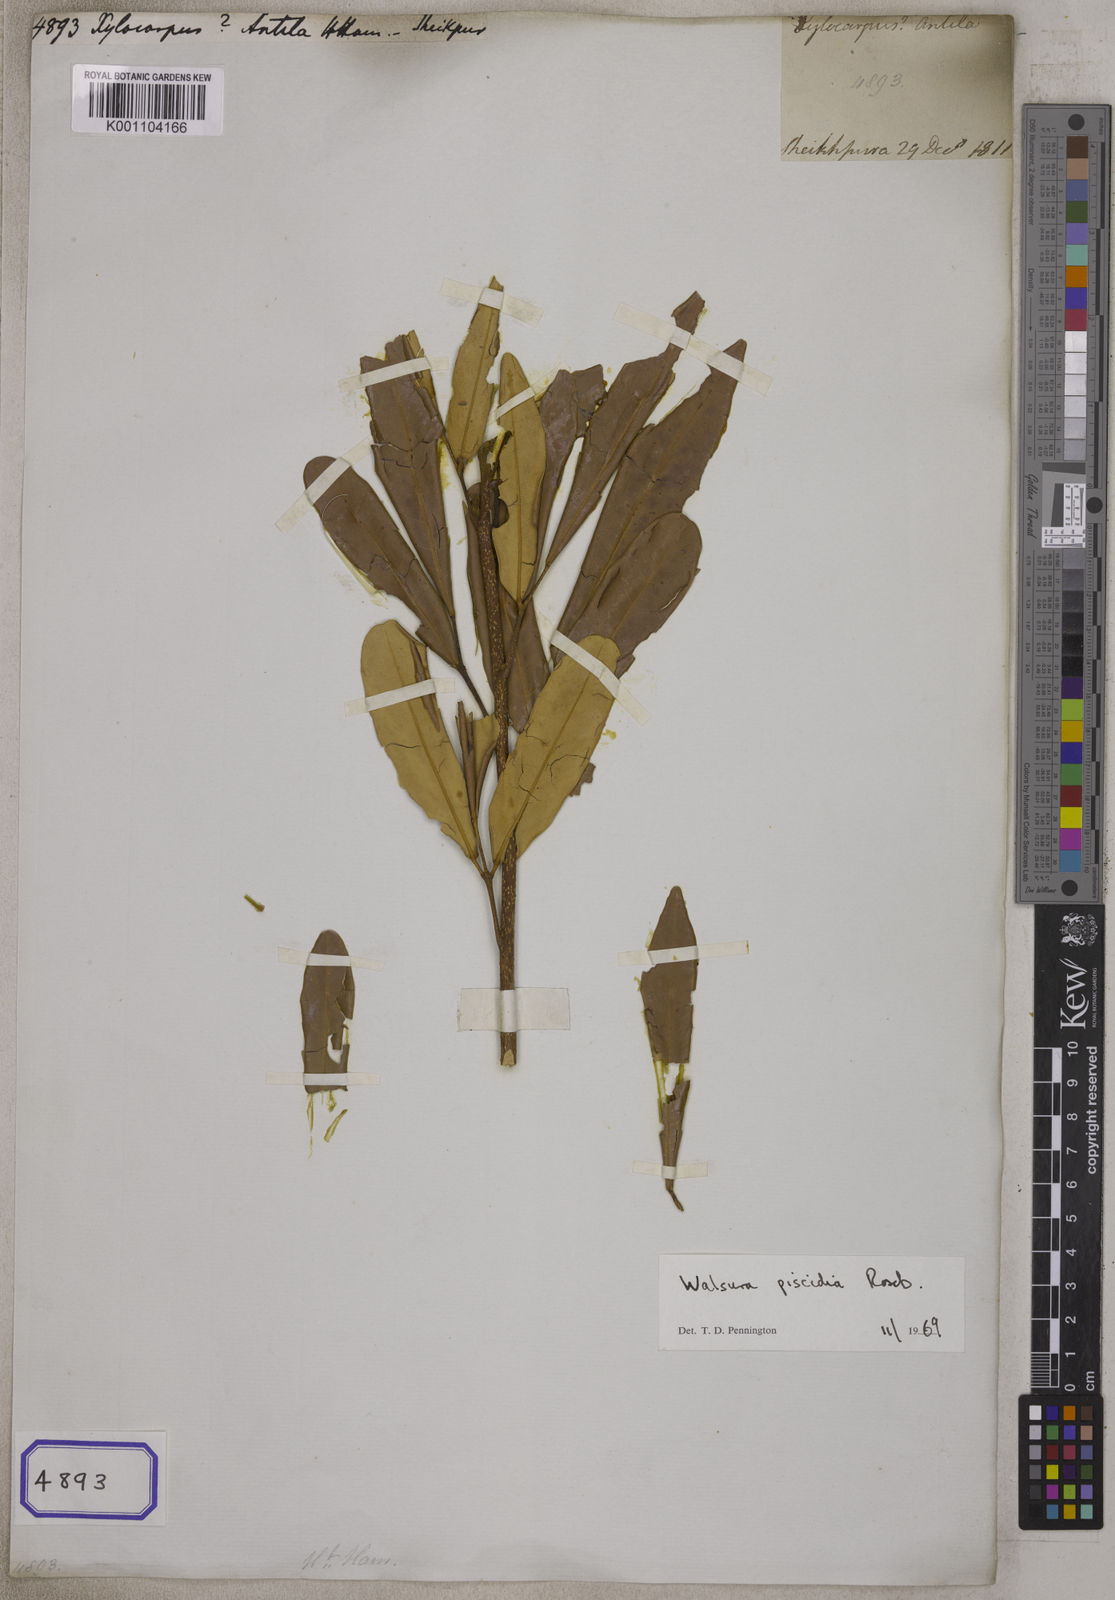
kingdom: Plantae
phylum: Tracheophyta
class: Magnoliopsida
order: Sapindales
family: Meliaceae
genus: Walsura
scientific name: Walsura trifoliolata
